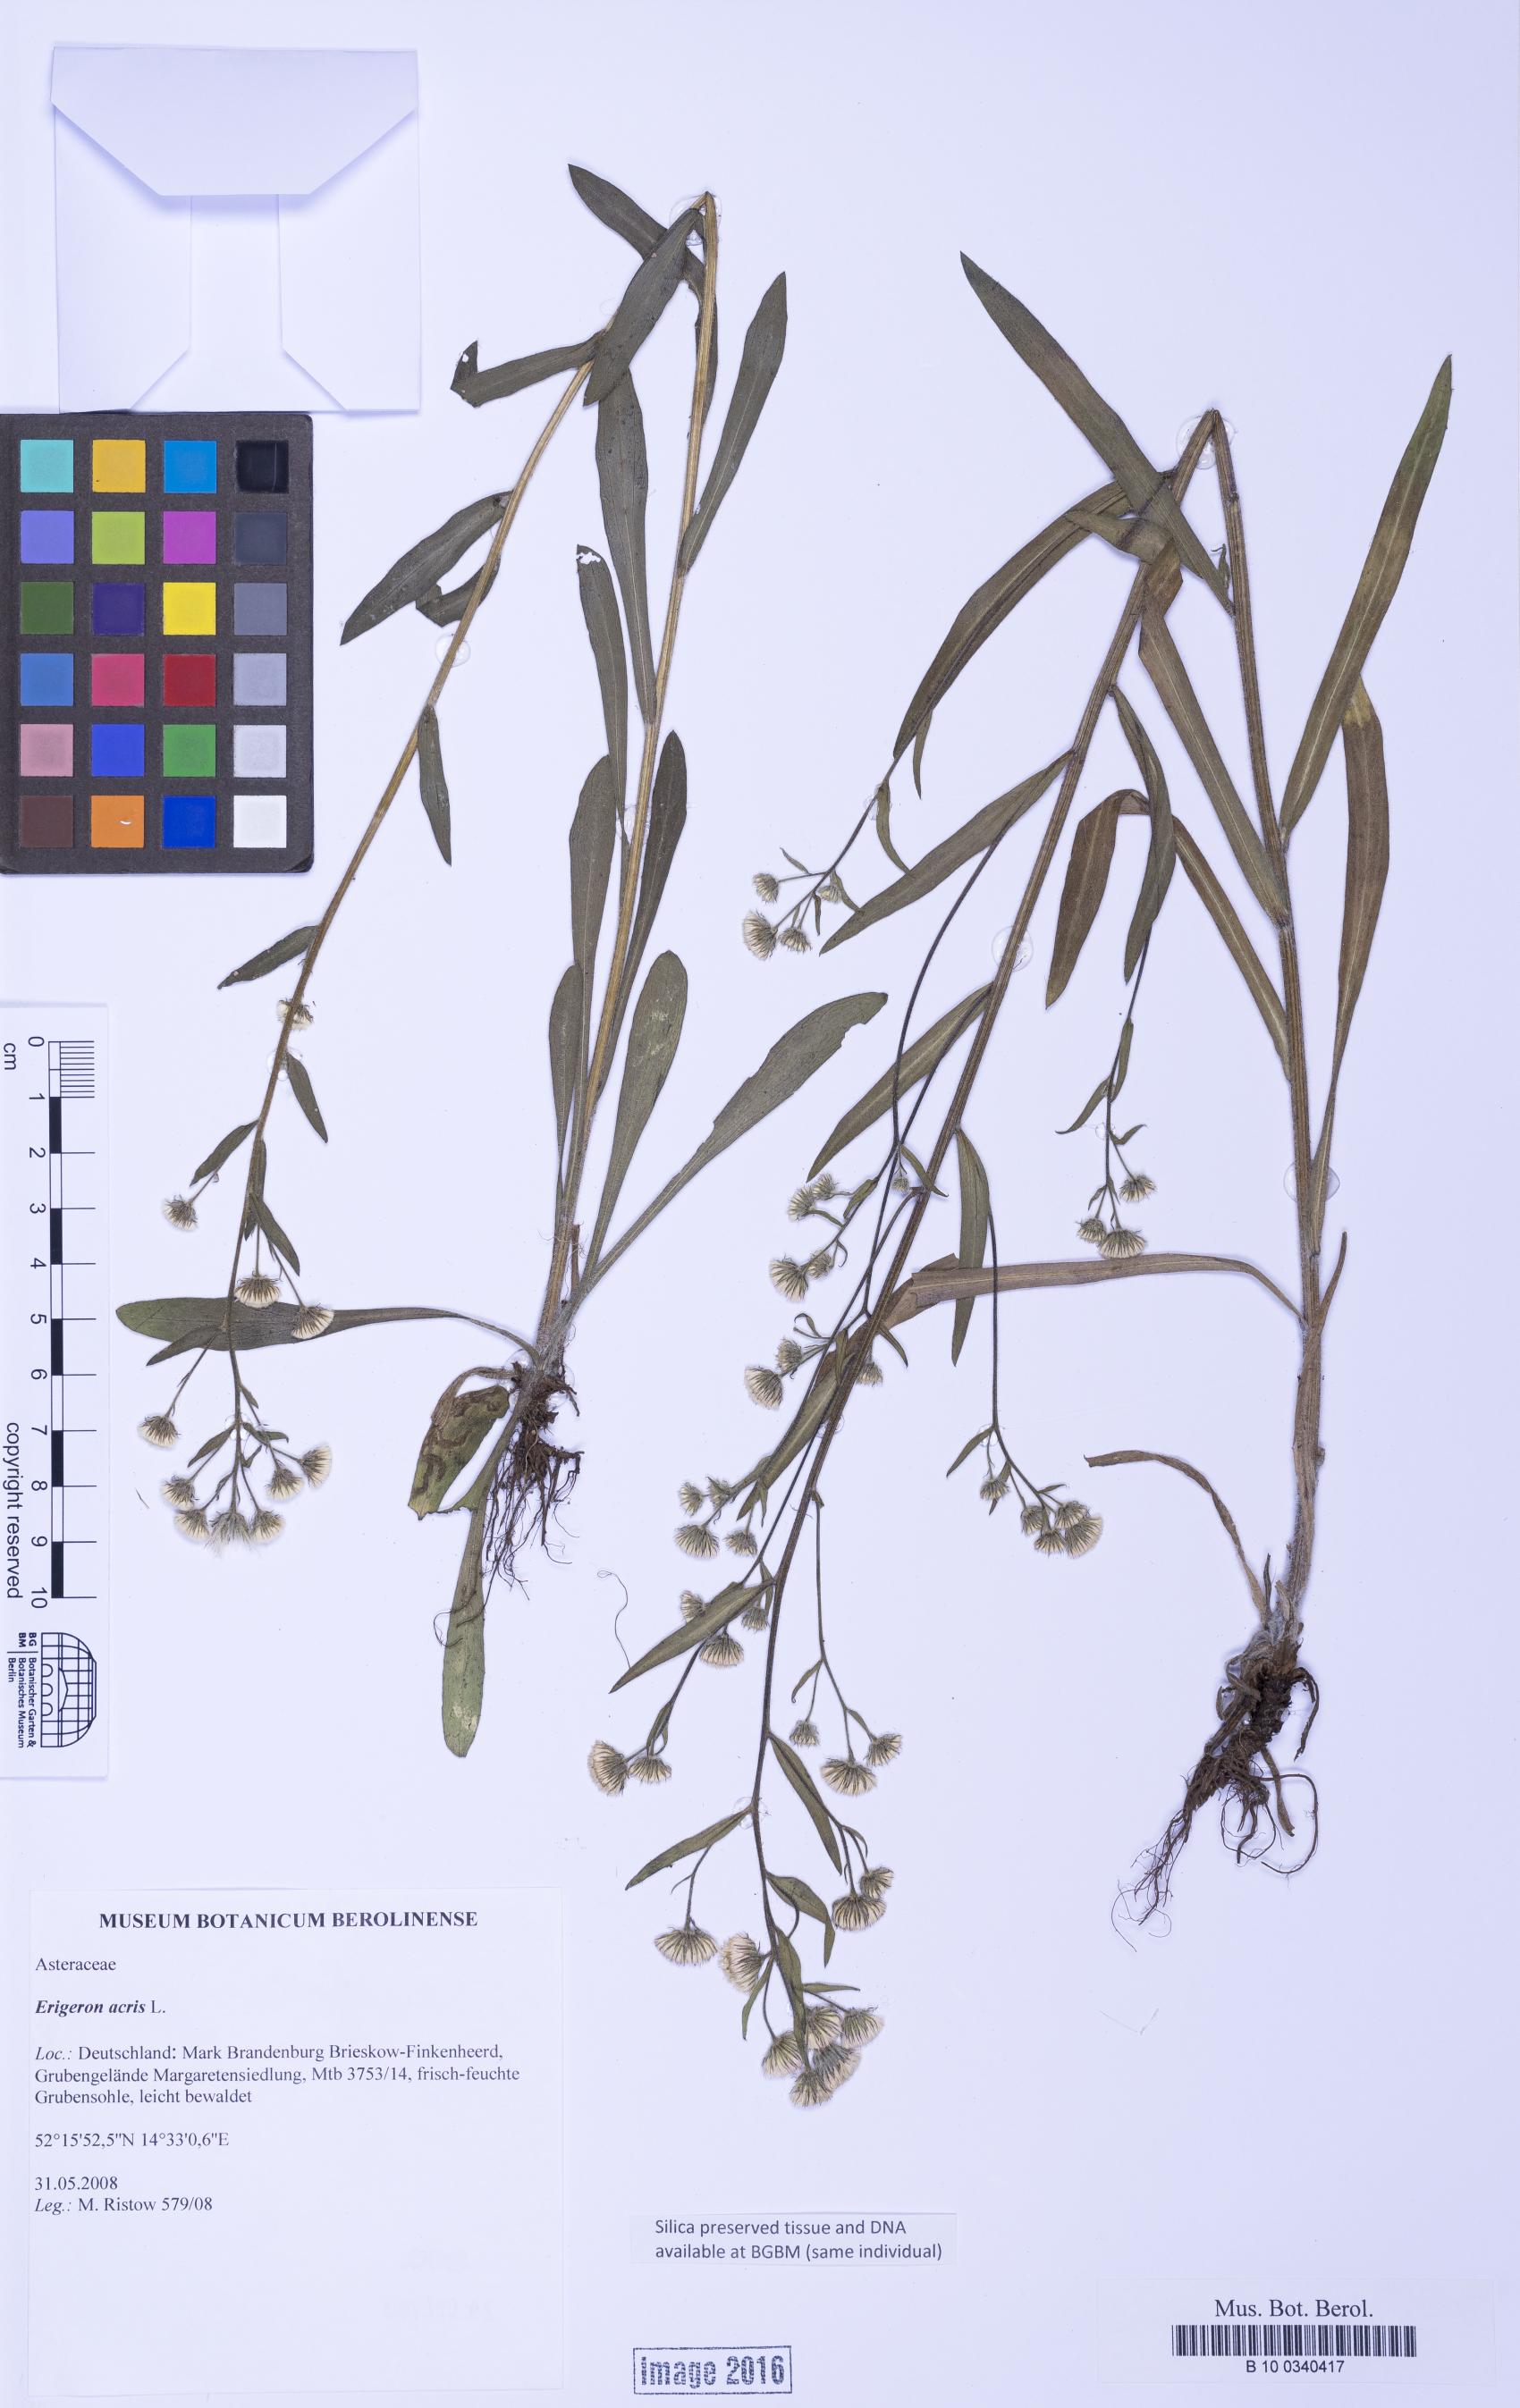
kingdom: Plantae
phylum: Tracheophyta
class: Magnoliopsida
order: Asterales
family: Asteraceae
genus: Erigeron
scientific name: Erigeron acris
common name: Blue fleabane
